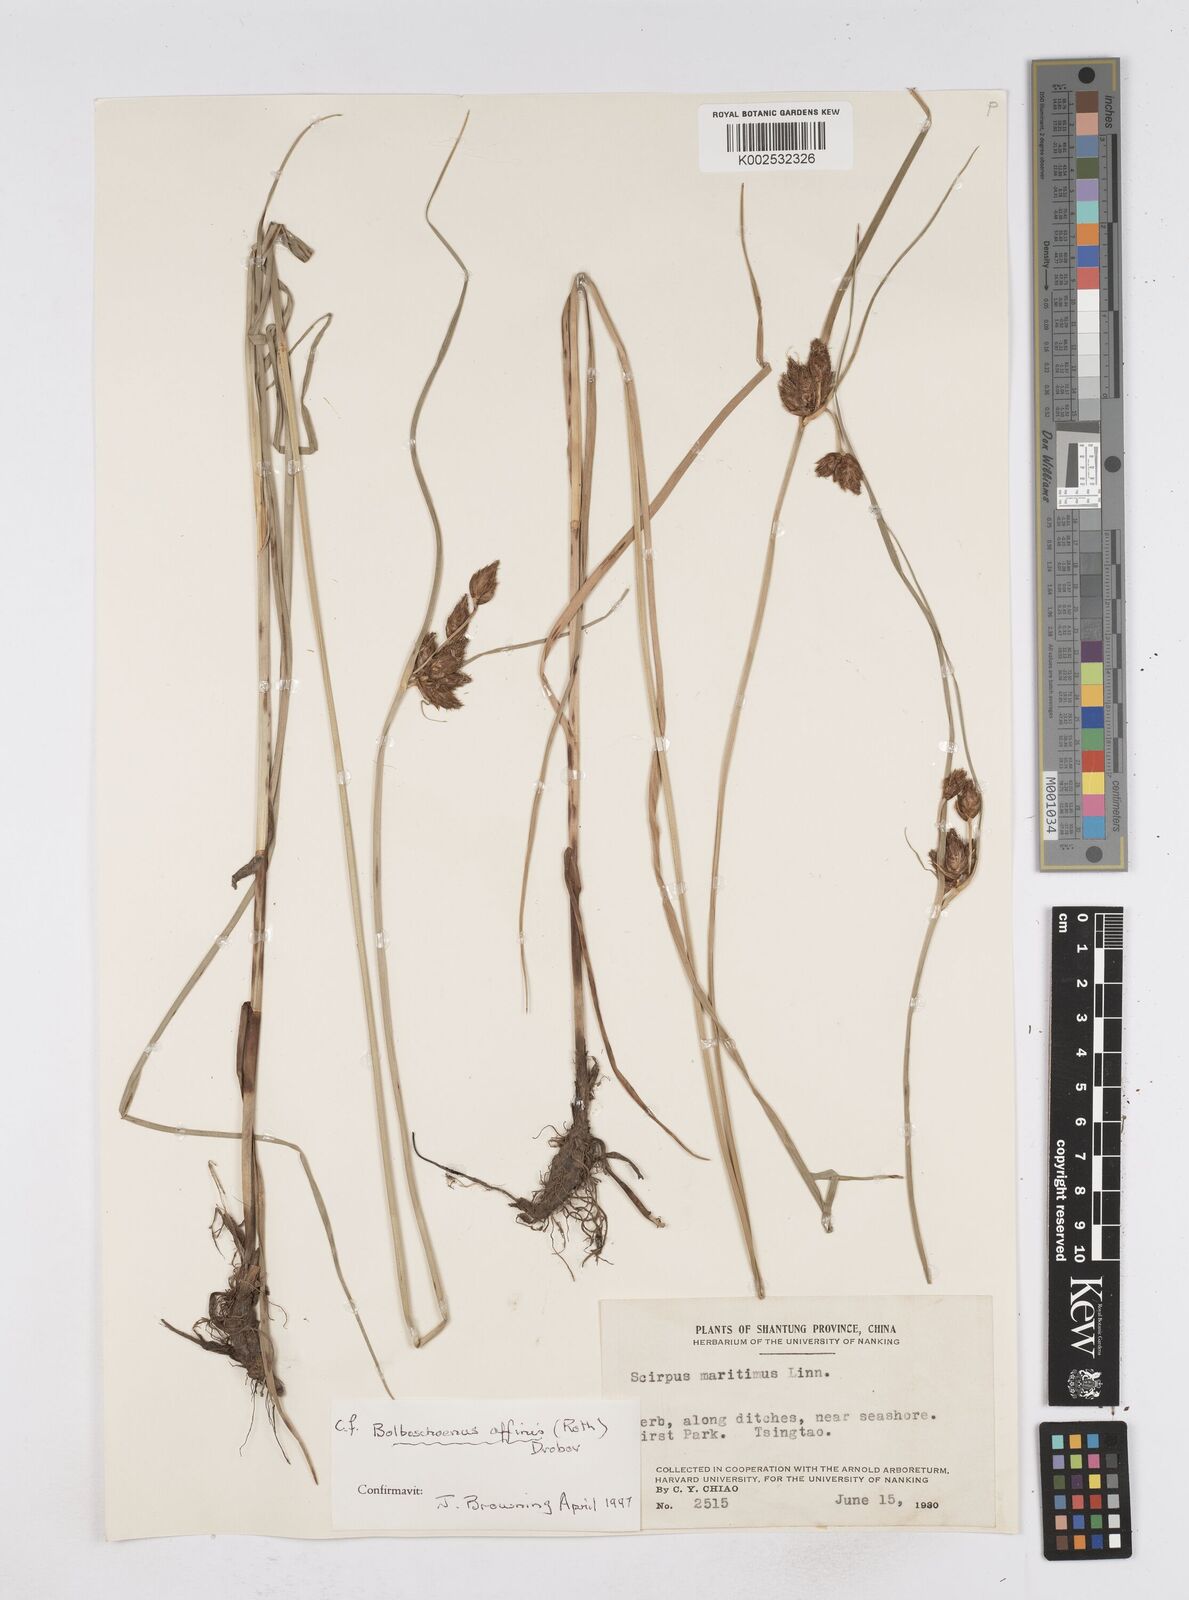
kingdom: Plantae
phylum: Tracheophyta
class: Liliopsida
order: Poales
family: Cyperaceae
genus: Bolboschoenus
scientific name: Bolboschoenus maritimus
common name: Sea club-rush
